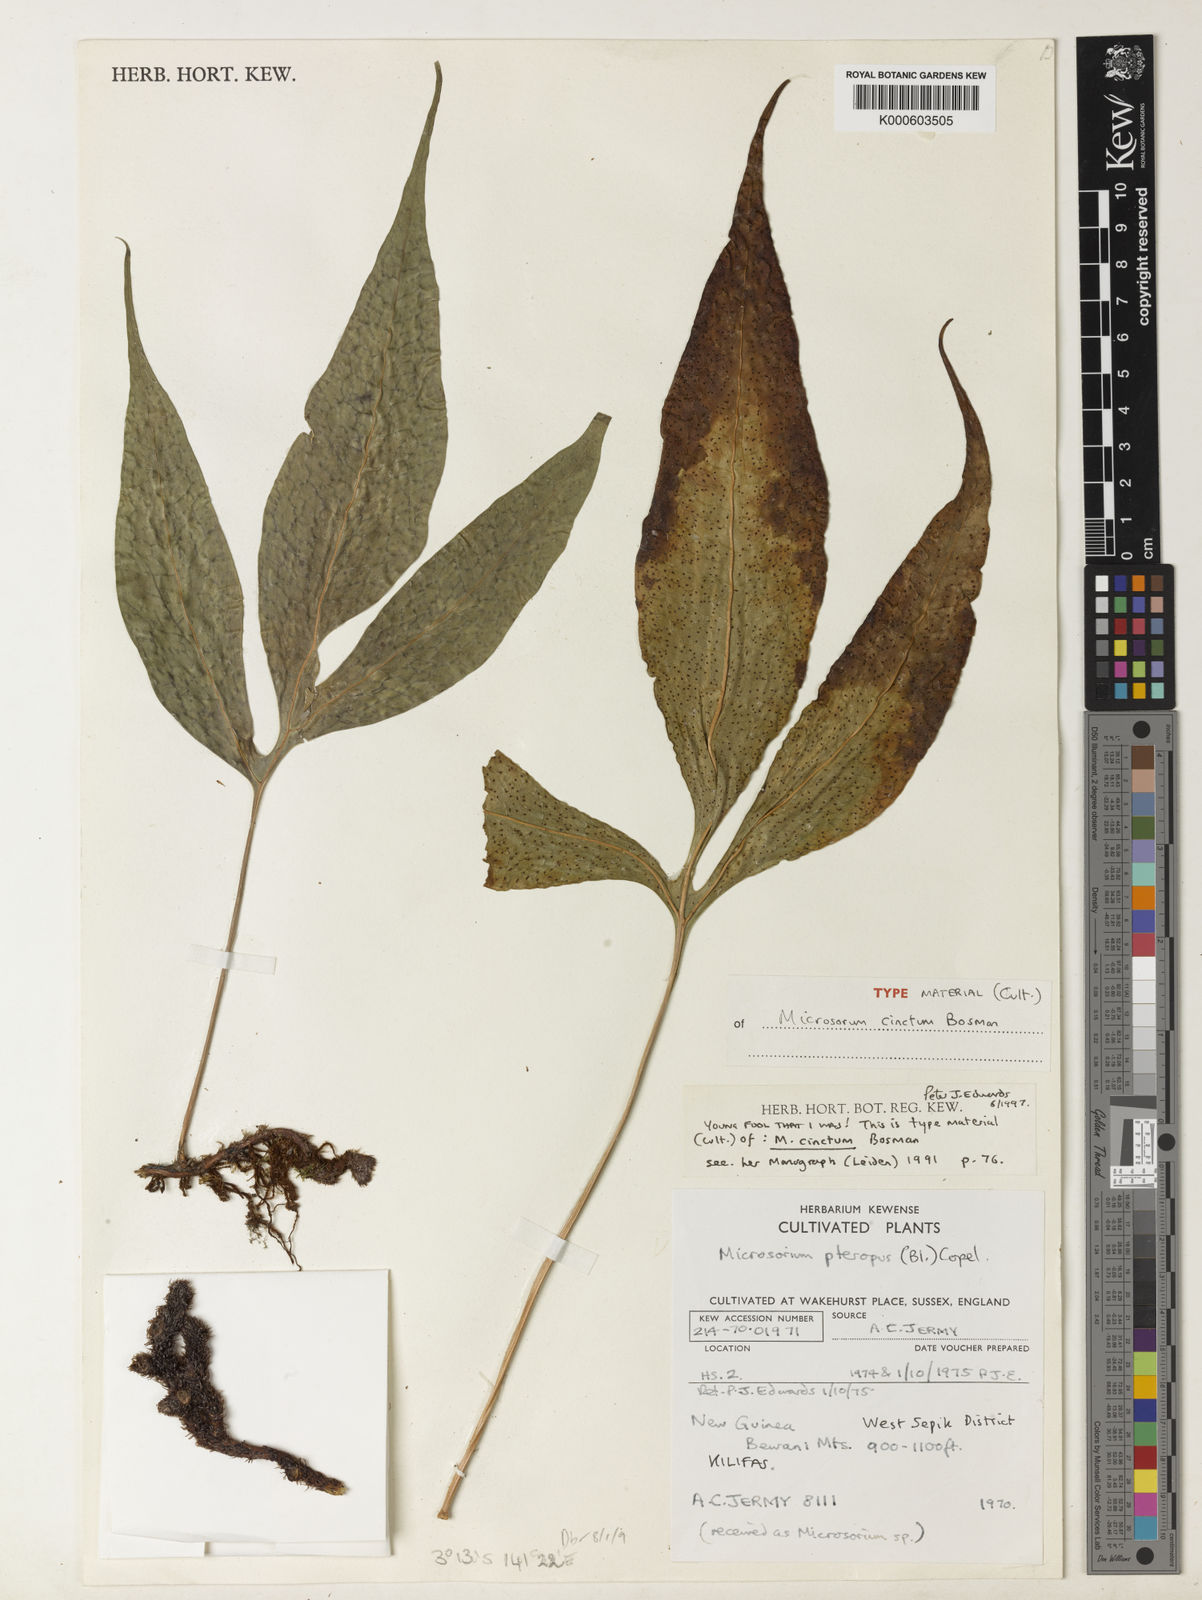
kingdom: Plantae
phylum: Tracheophyta
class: Polypodiopsida
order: Polypodiales
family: Polypodiaceae
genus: Microsorum
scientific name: Microsorum cinctum
